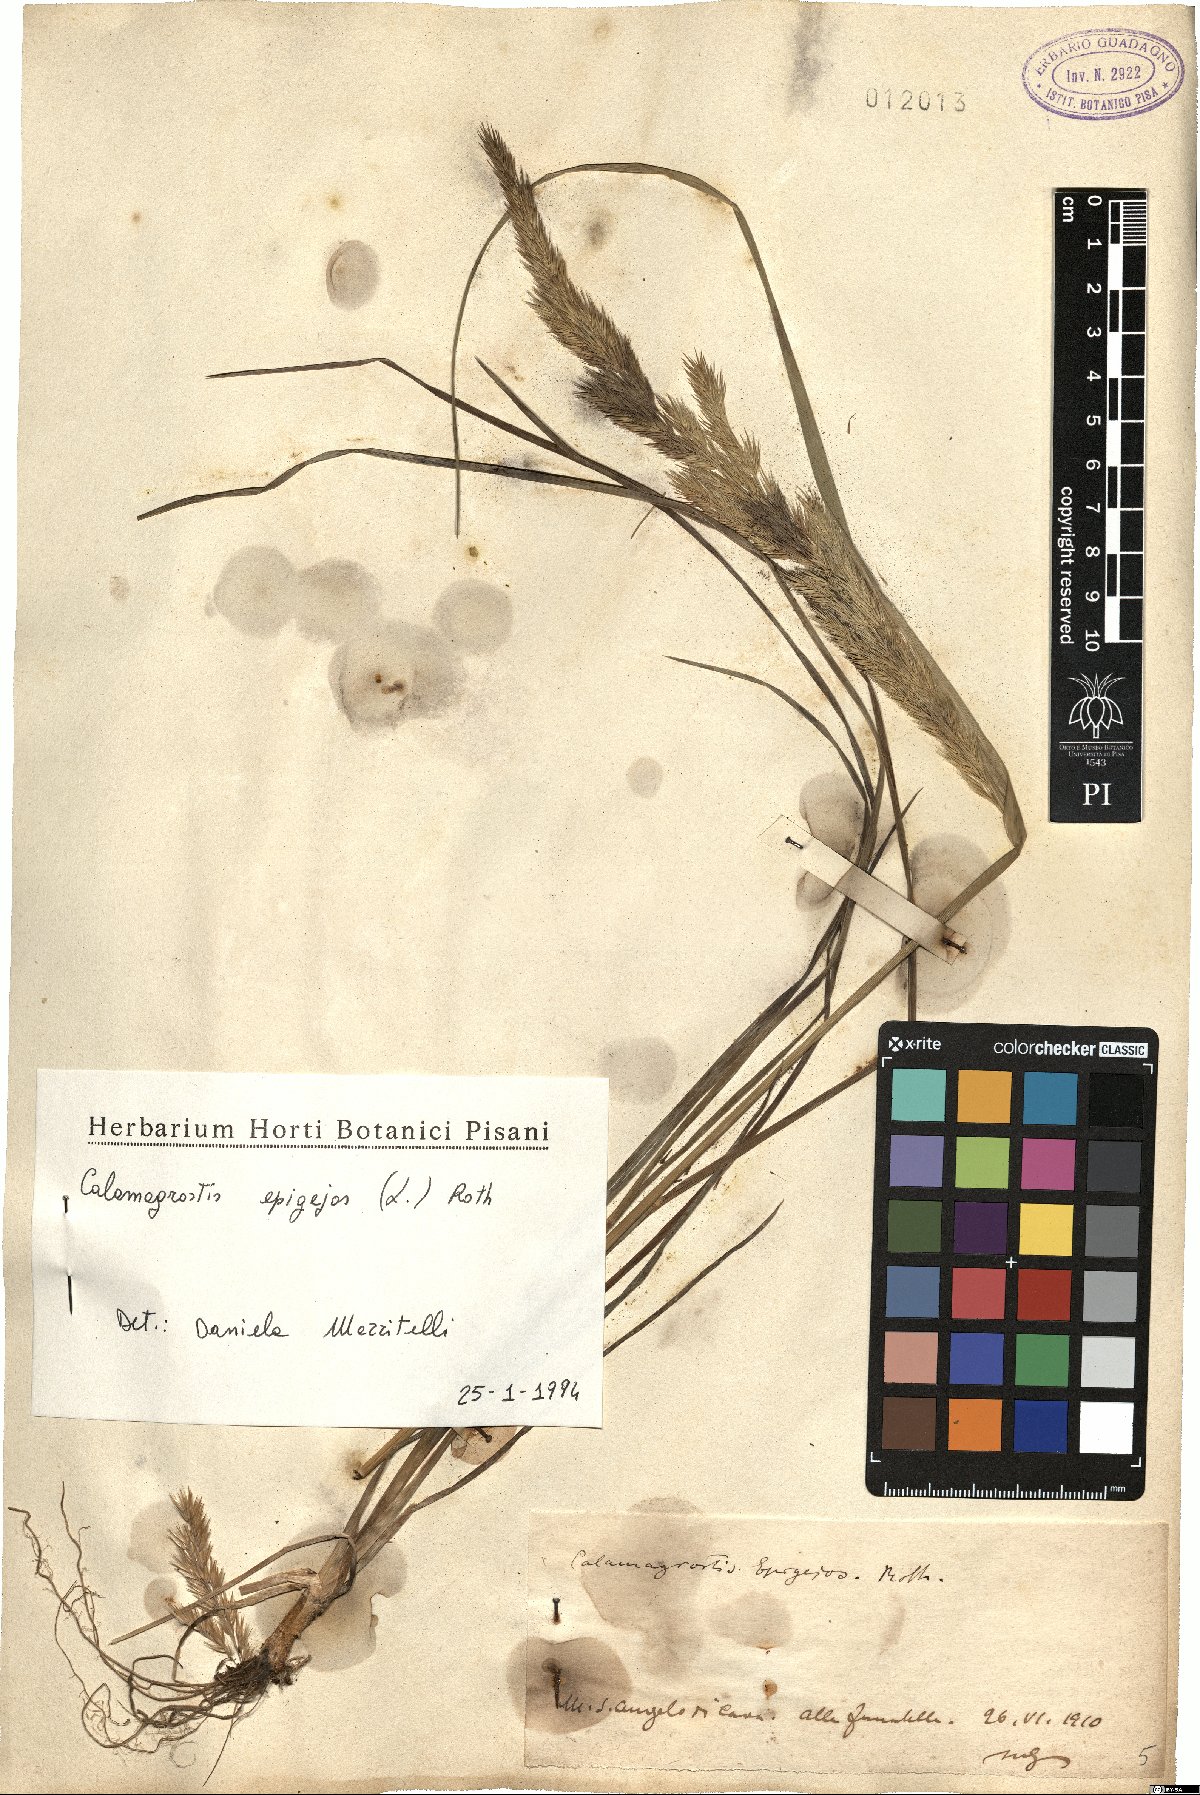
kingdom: Plantae
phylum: Tracheophyta
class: Liliopsida
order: Poales
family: Poaceae
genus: Calamagrostis
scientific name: Calamagrostis epigejos
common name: Wood small-reed
